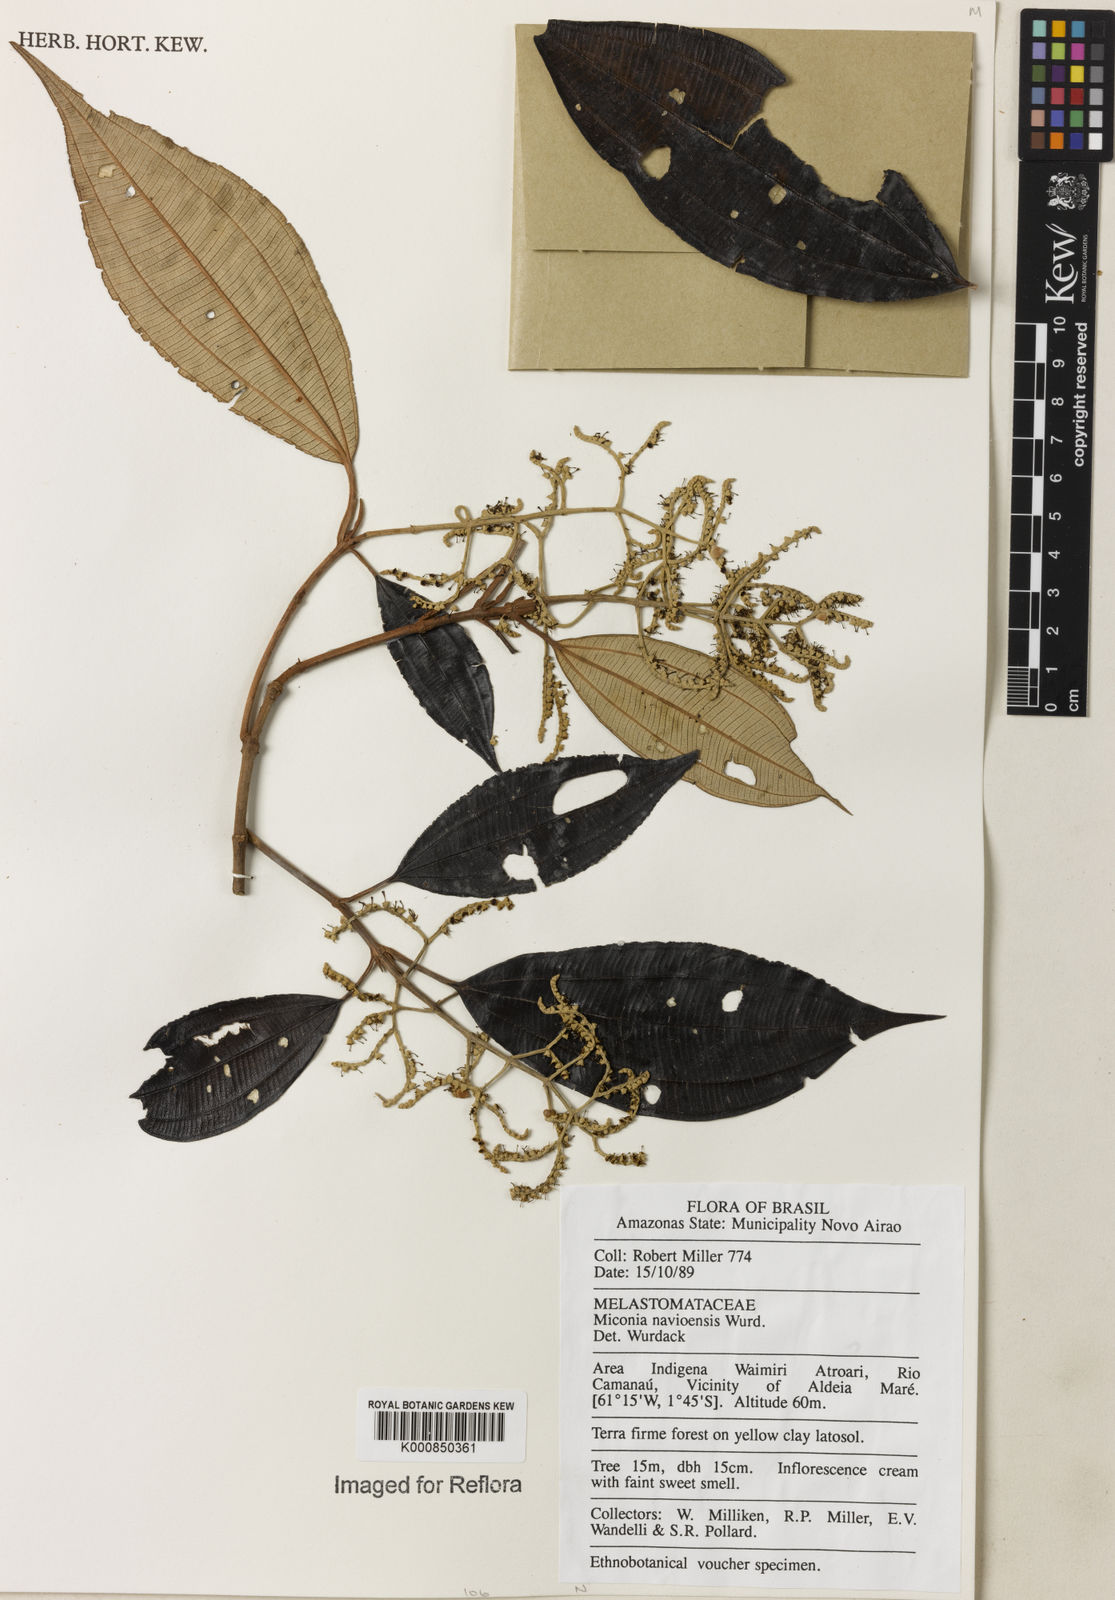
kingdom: Plantae
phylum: Tracheophyta
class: Magnoliopsida
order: Myrtales
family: Melastomataceae
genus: Miconia
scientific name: Miconia navioensis
